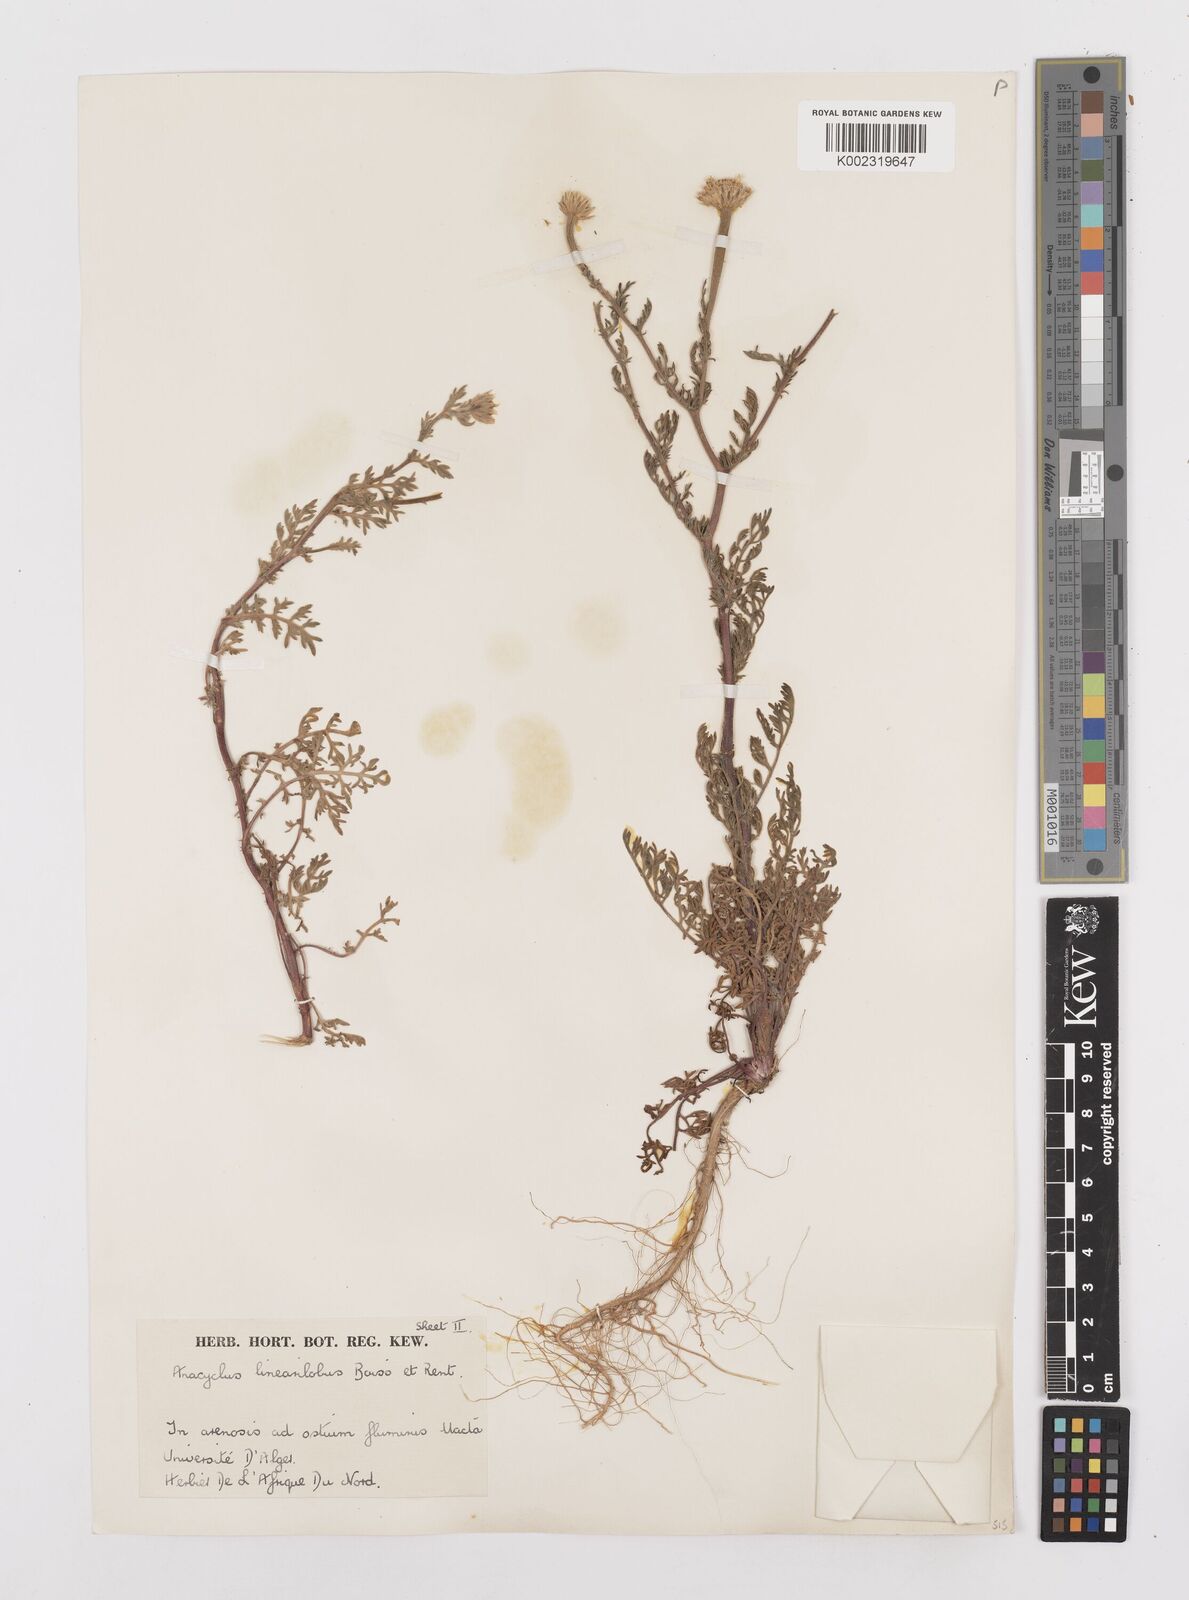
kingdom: Plantae
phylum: Tracheophyta
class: Magnoliopsida
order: Asterales
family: Asteraceae
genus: Anacyclus
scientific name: Anacyclus linearilobus
